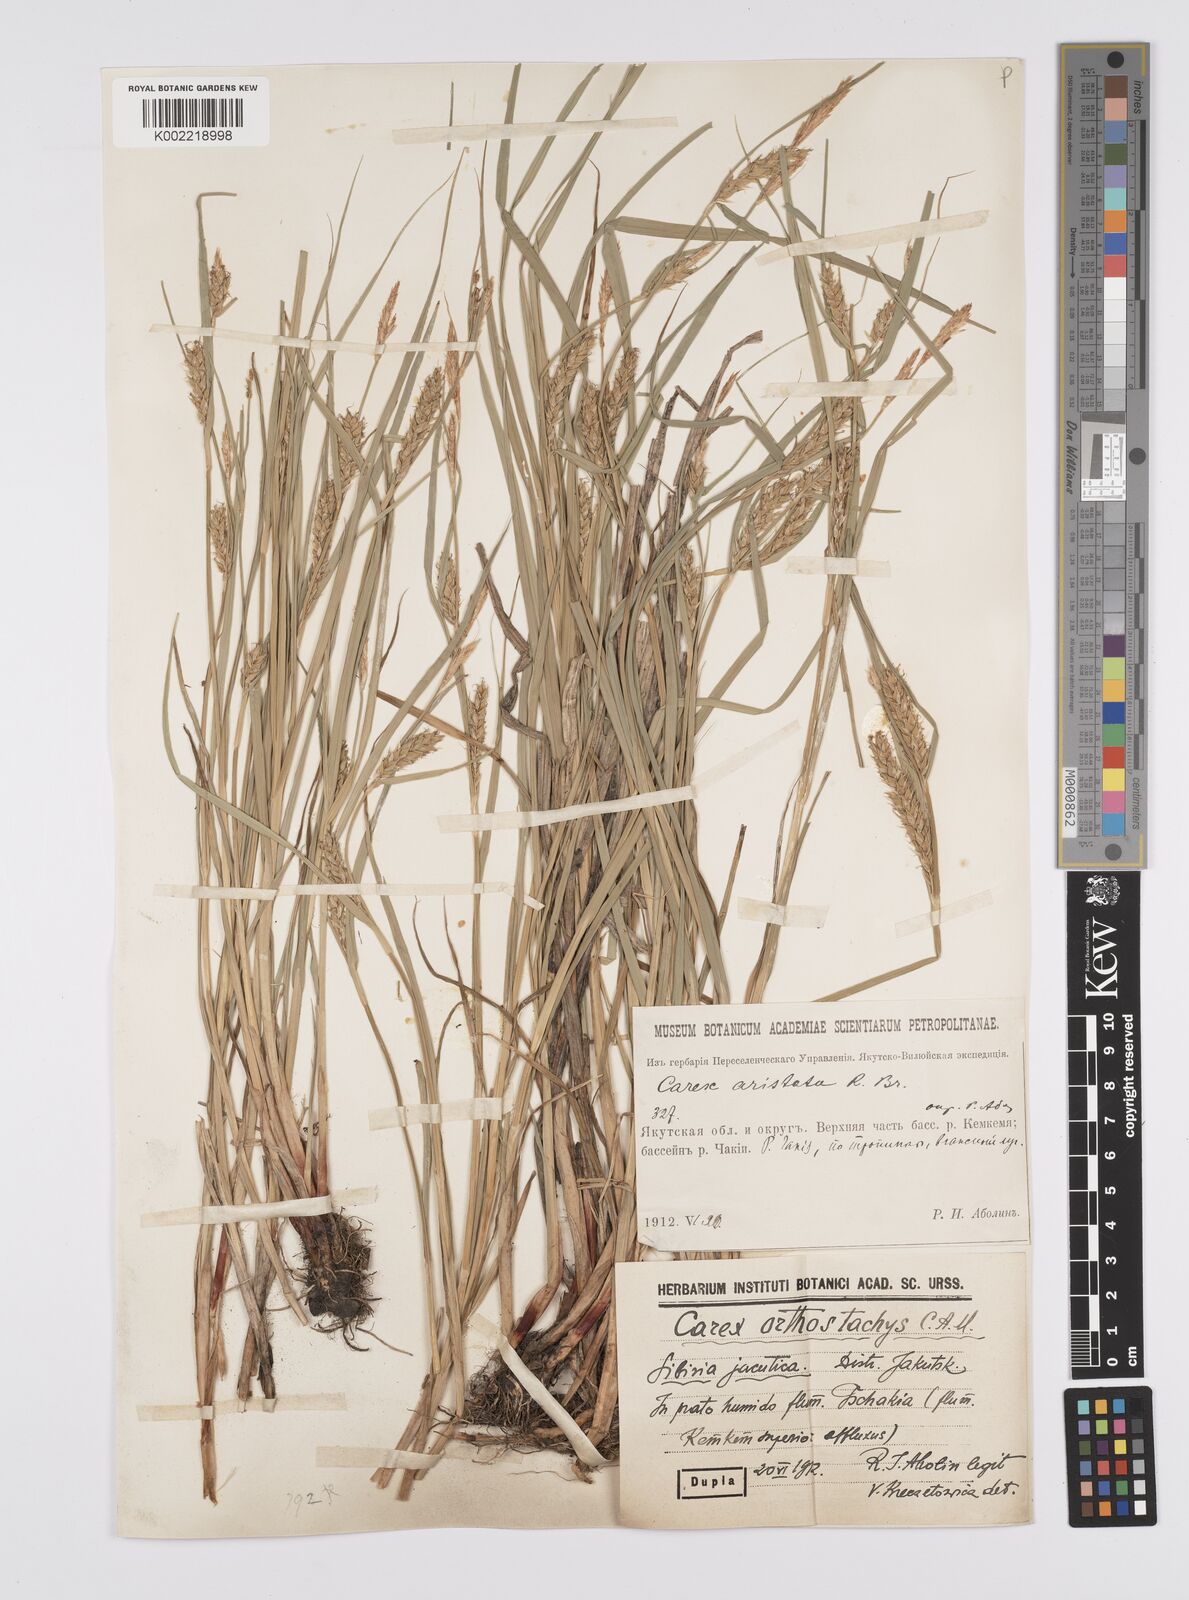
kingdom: Plantae
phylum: Tracheophyta
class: Liliopsida
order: Poales
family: Cyperaceae
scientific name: Cyperaceae
